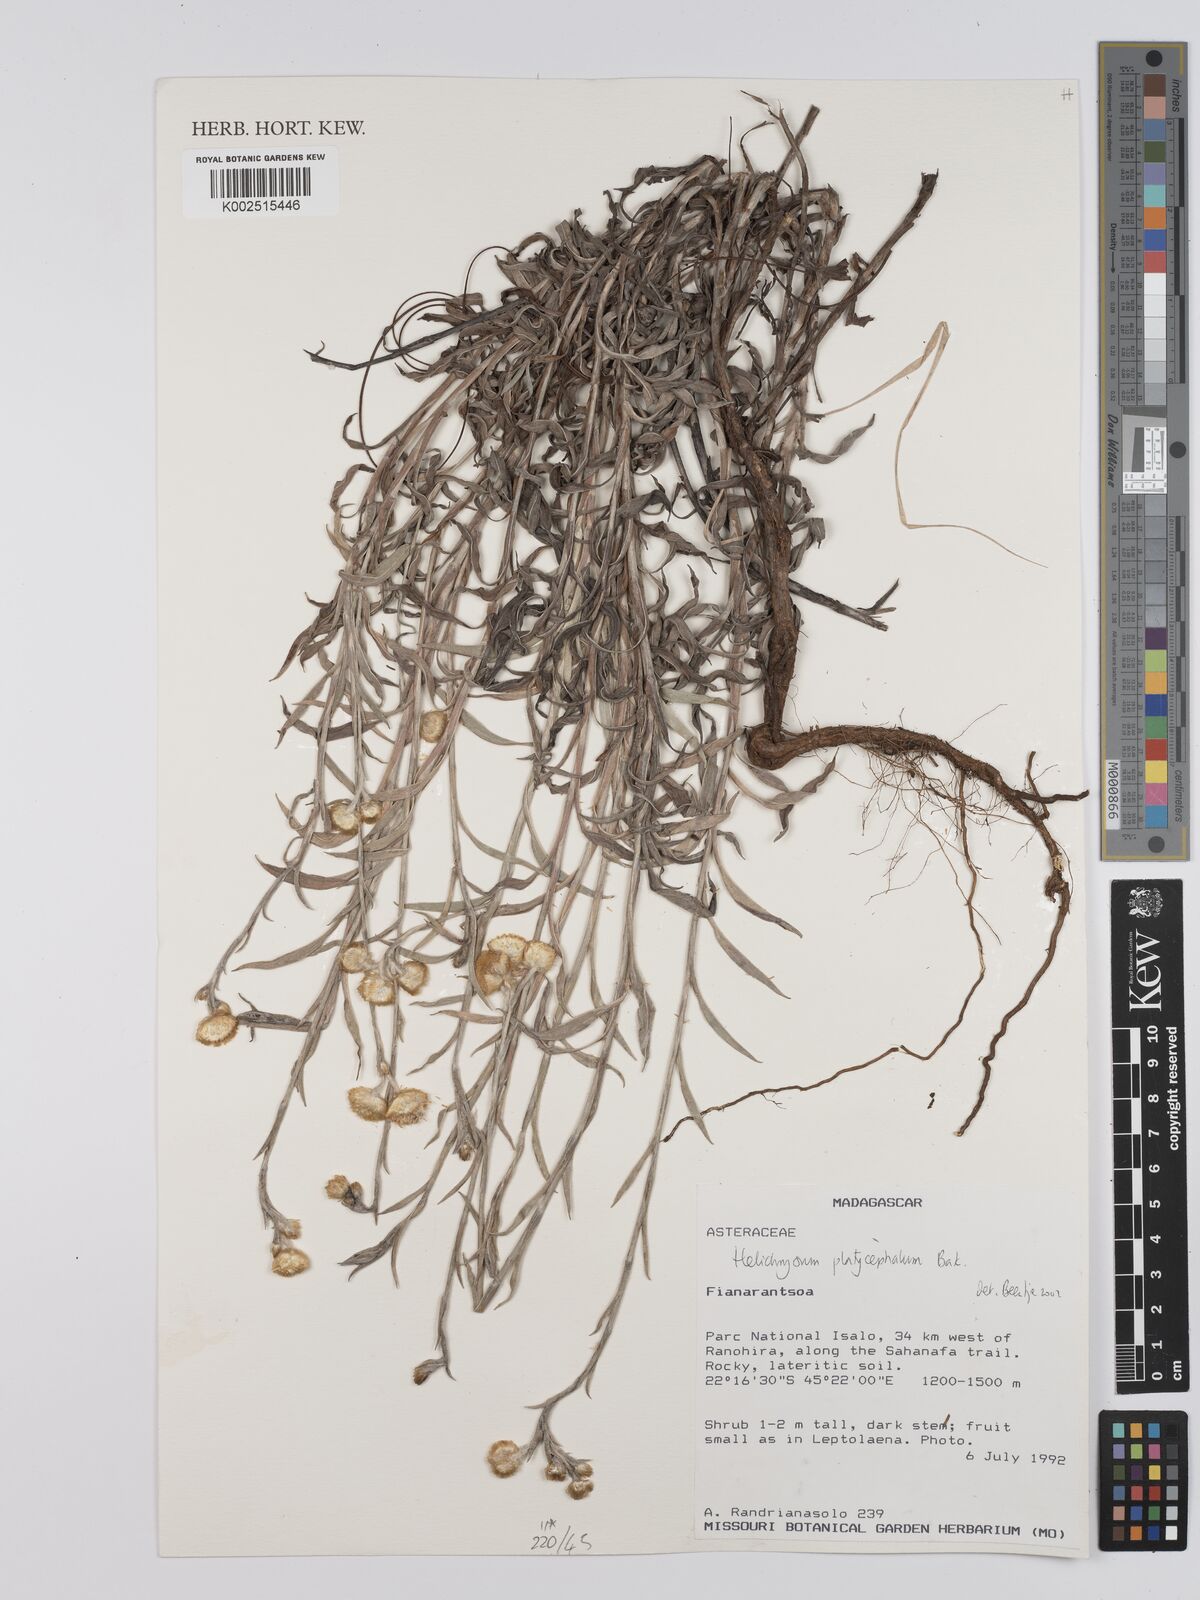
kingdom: Plantae
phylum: Tracheophyta
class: Magnoliopsida
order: Asterales
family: Asteraceae
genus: Helichrysum
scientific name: Helichrysum platycephalum
